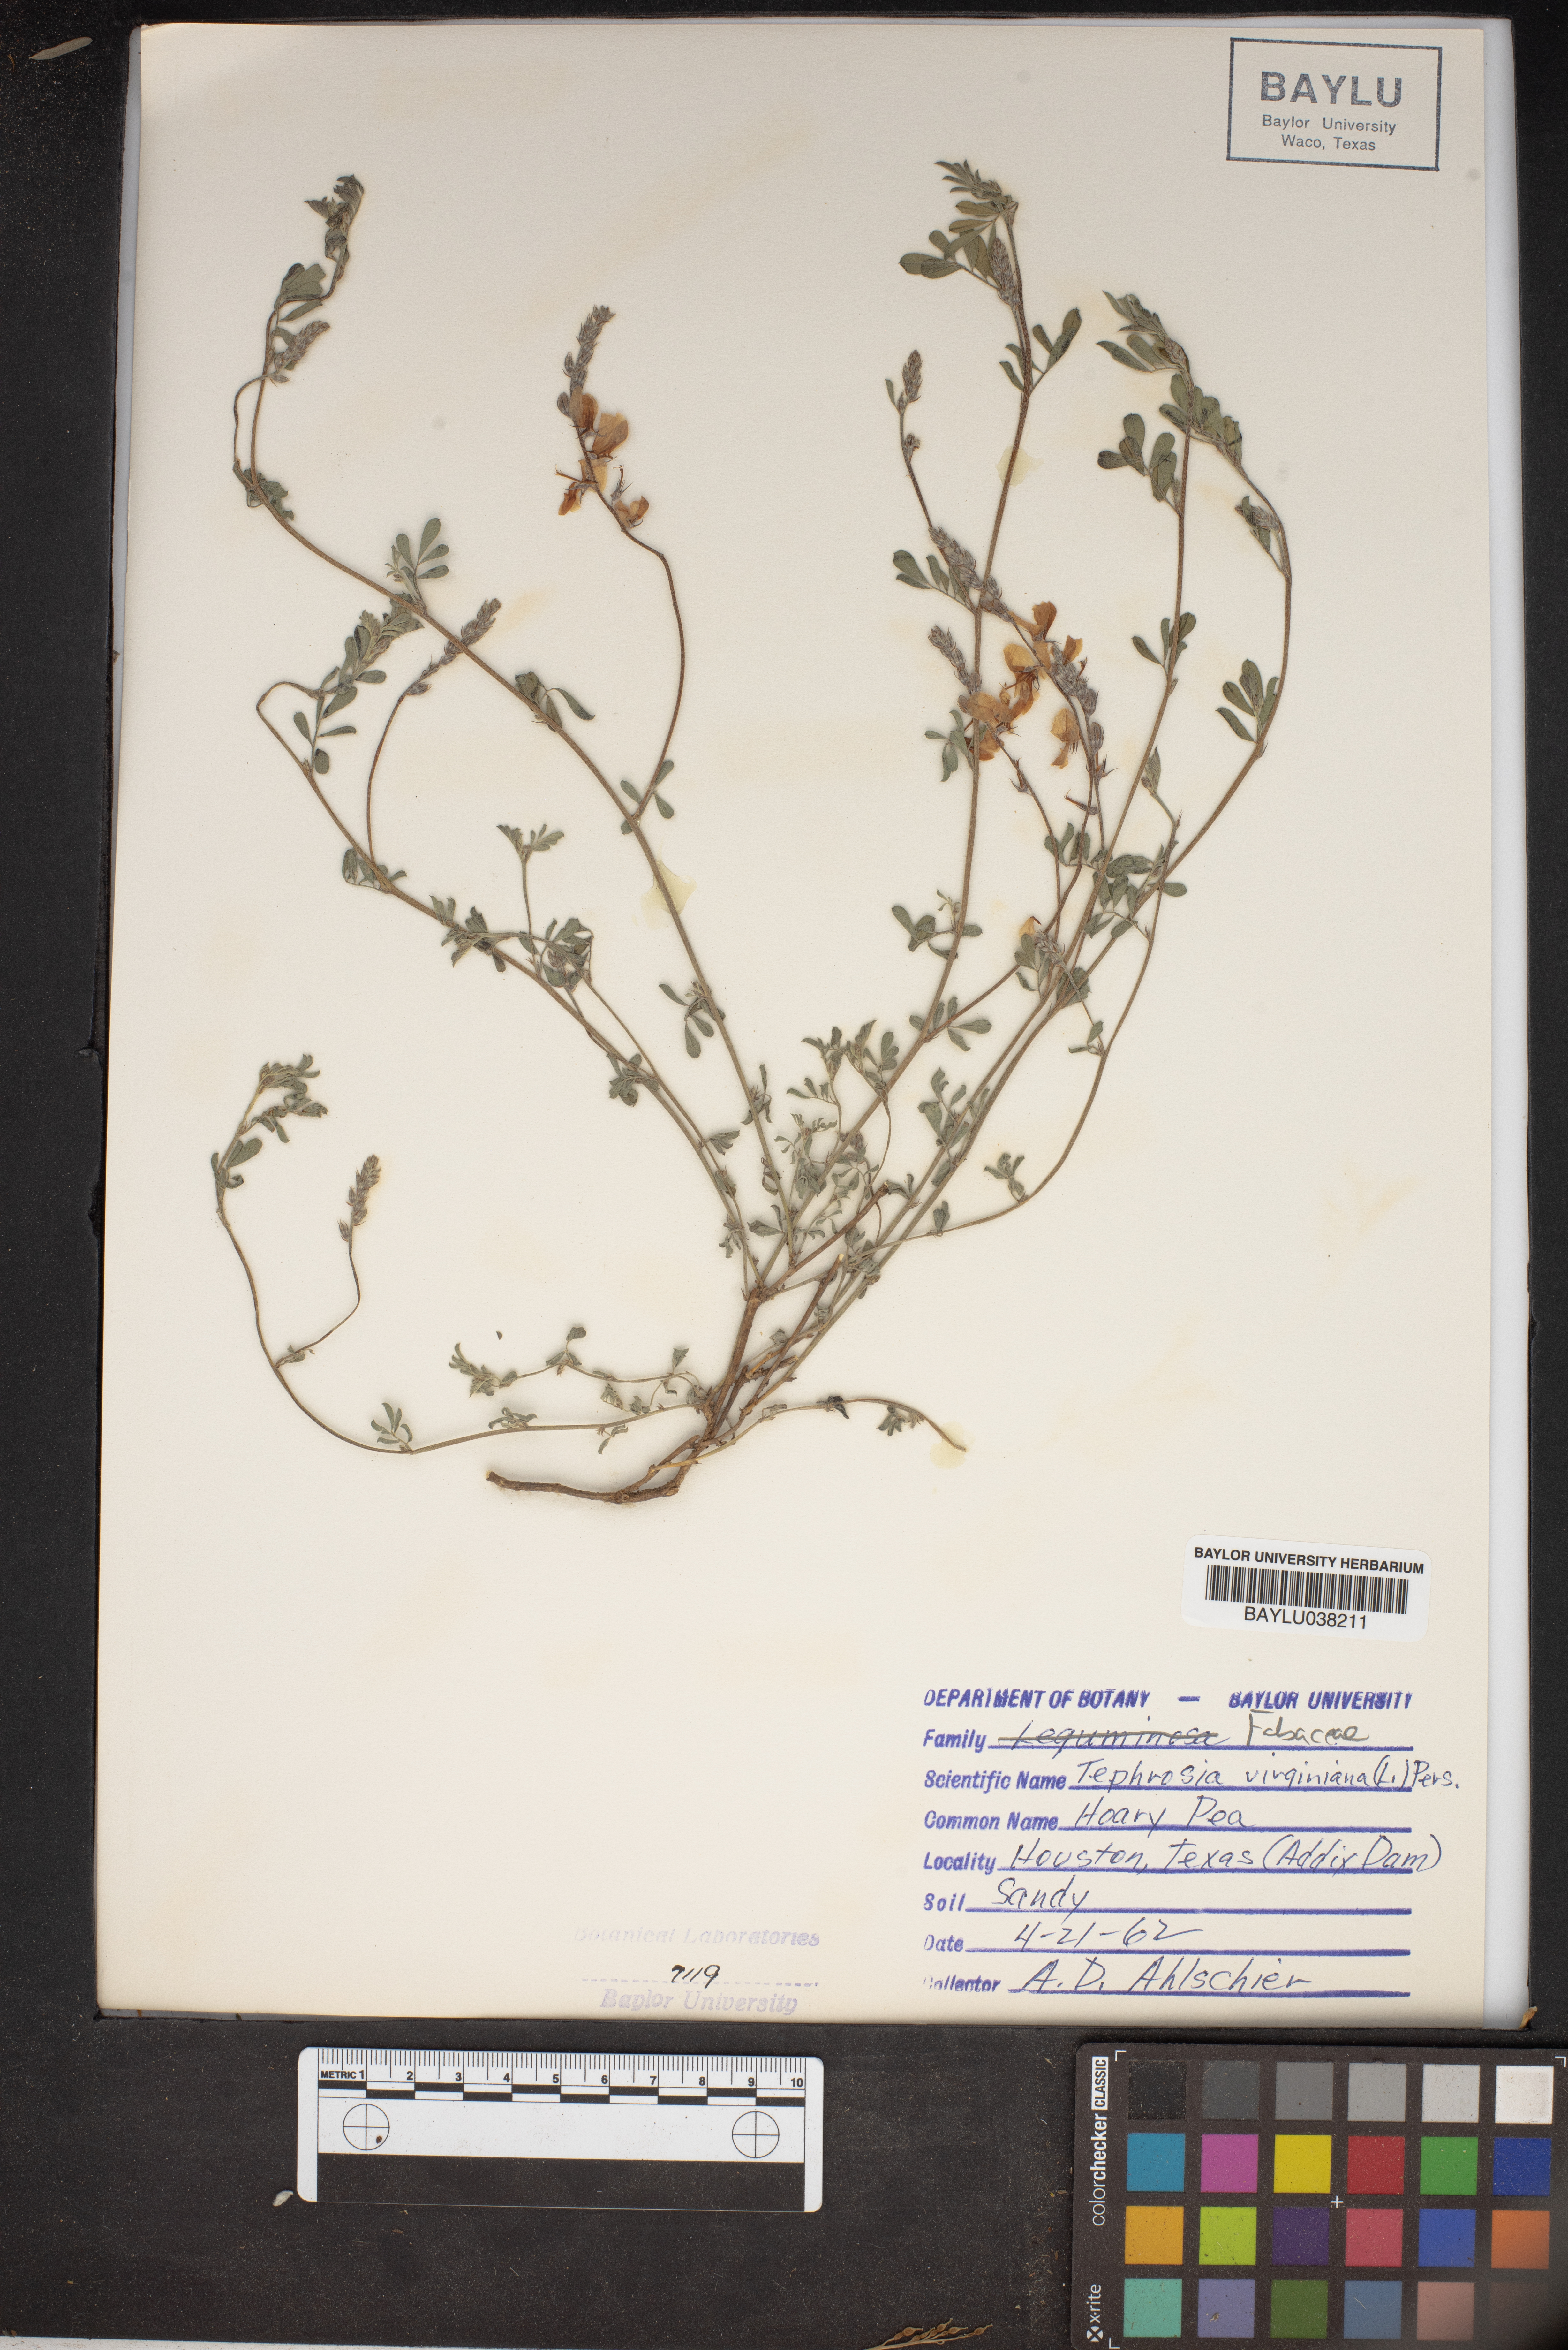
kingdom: Plantae
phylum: Tracheophyta
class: Magnoliopsida
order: Fabales
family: Fabaceae
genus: Tephrosia
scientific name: Tephrosia virginiana
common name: Rabbit-pea
